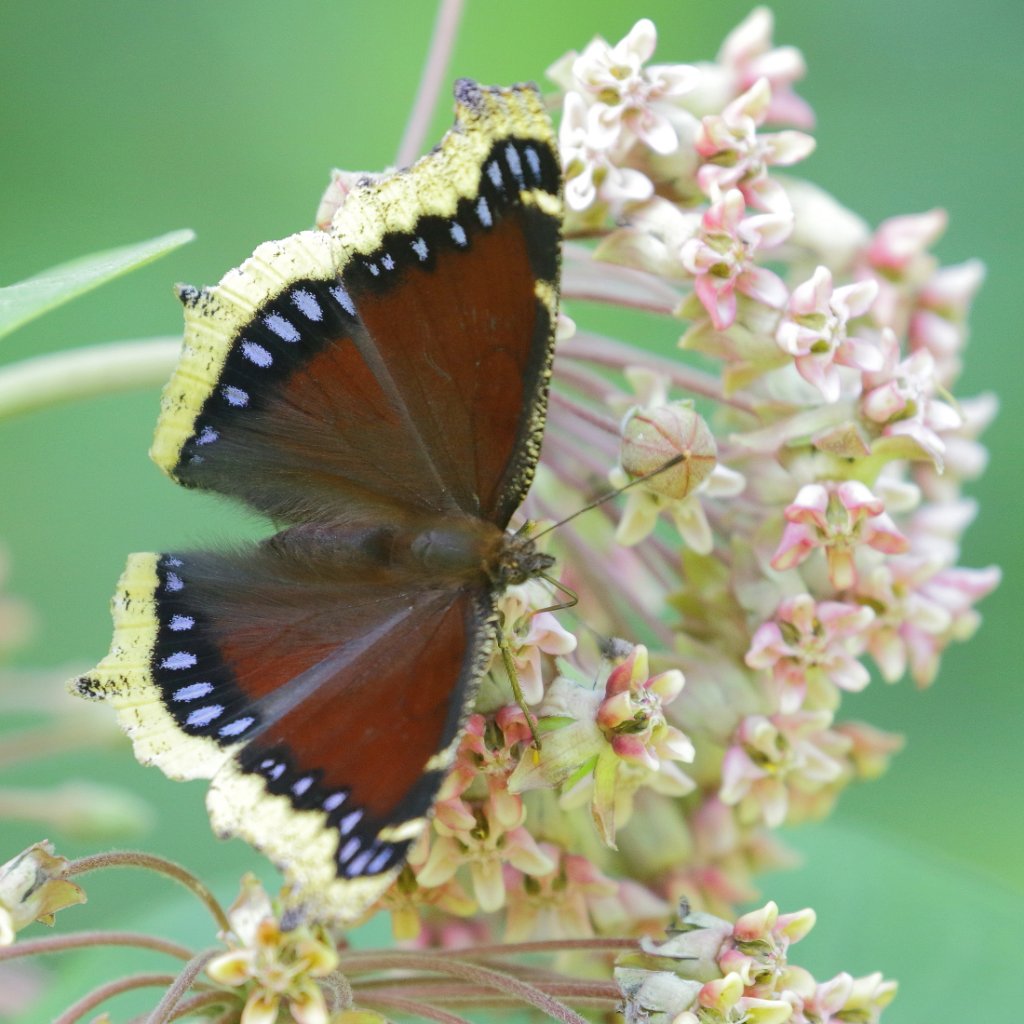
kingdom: Animalia
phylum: Arthropoda
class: Insecta
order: Lepidoptera
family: Nymphalidae
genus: Nymphalis
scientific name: Nymphalis antiopa
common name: Mourning Cloak
